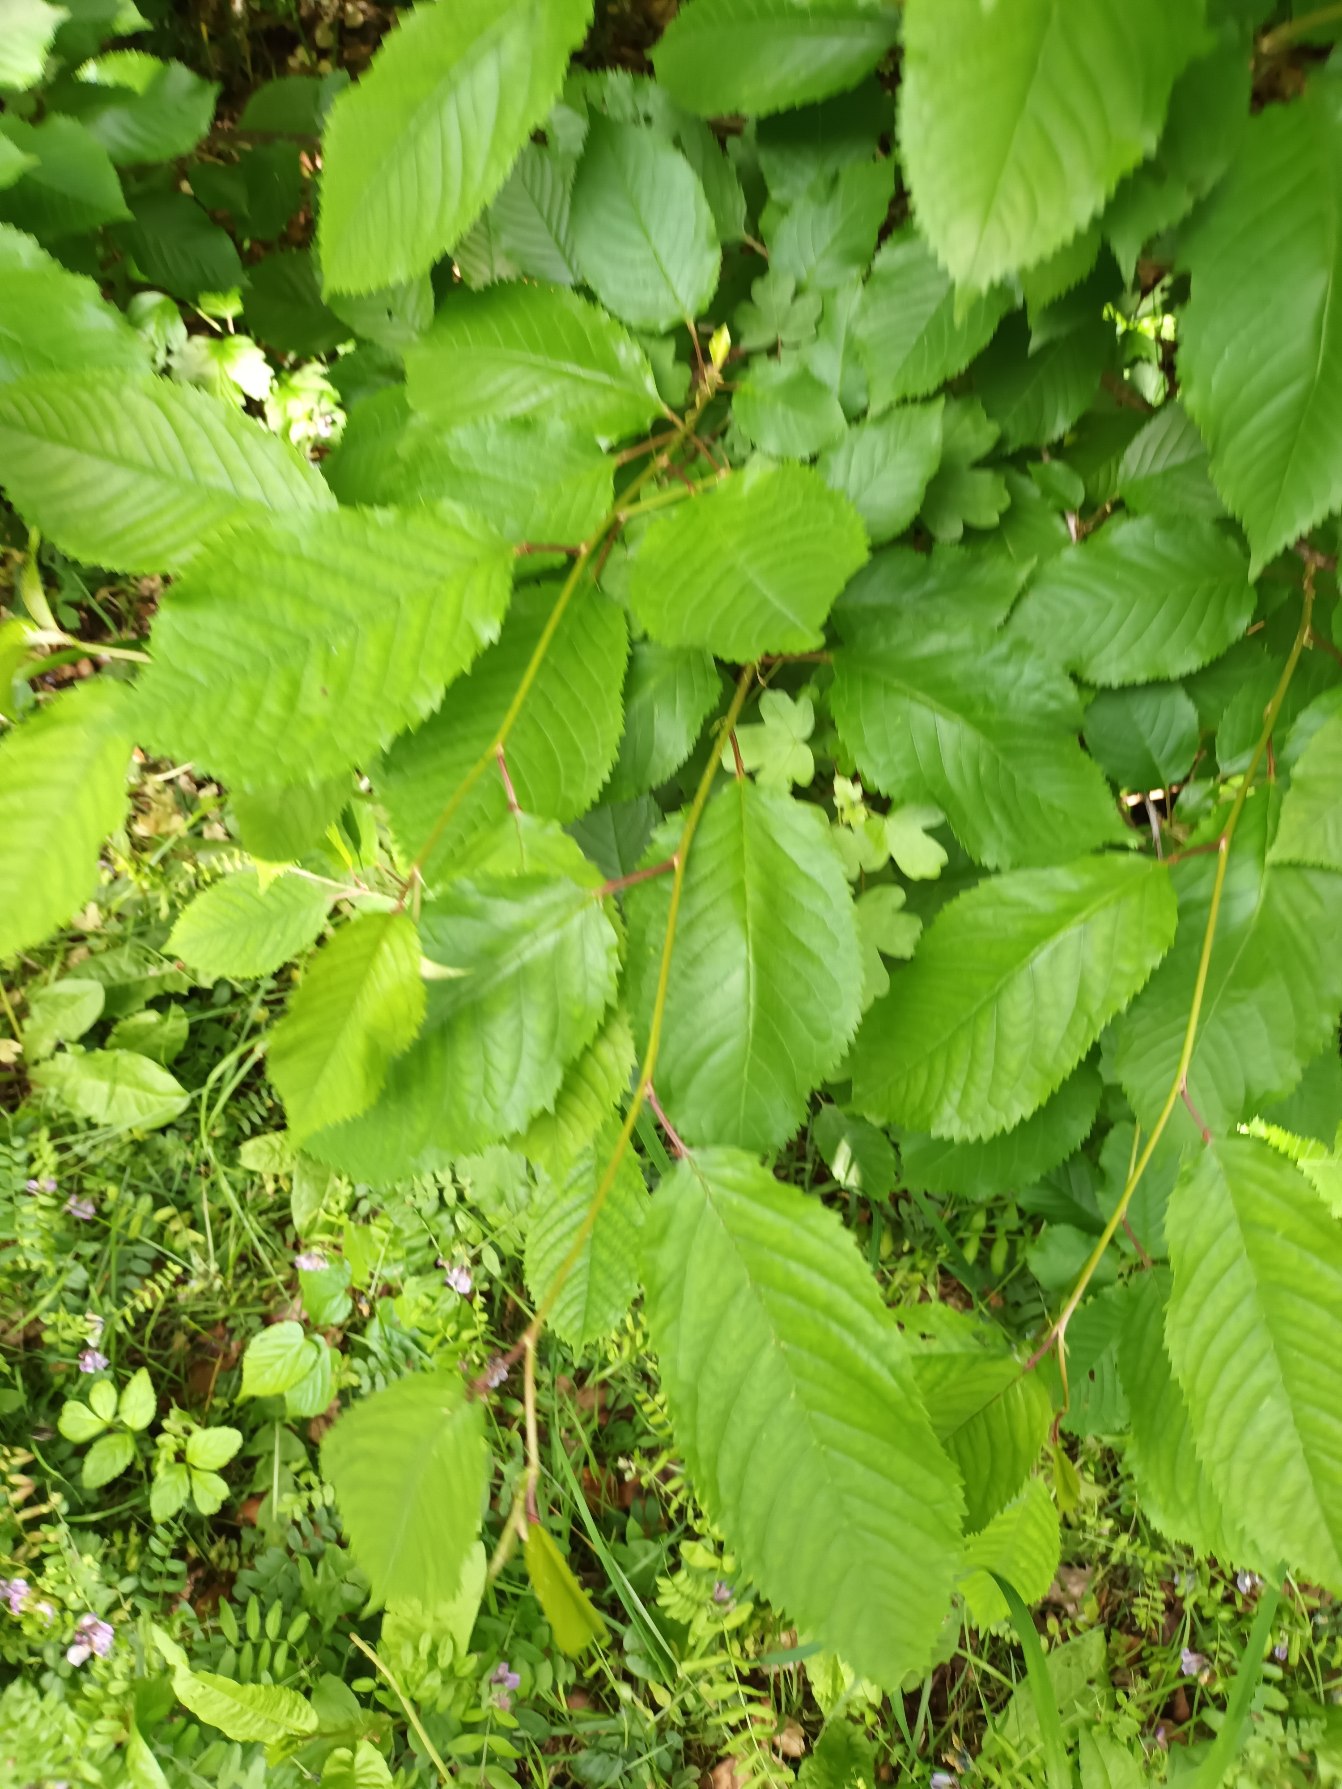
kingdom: Plantae
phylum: Tracheophyta
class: Magnoliopsida
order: Rosales
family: Rosaceae
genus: Prunus
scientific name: Prunus avium
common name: Fugle-kirsebær
